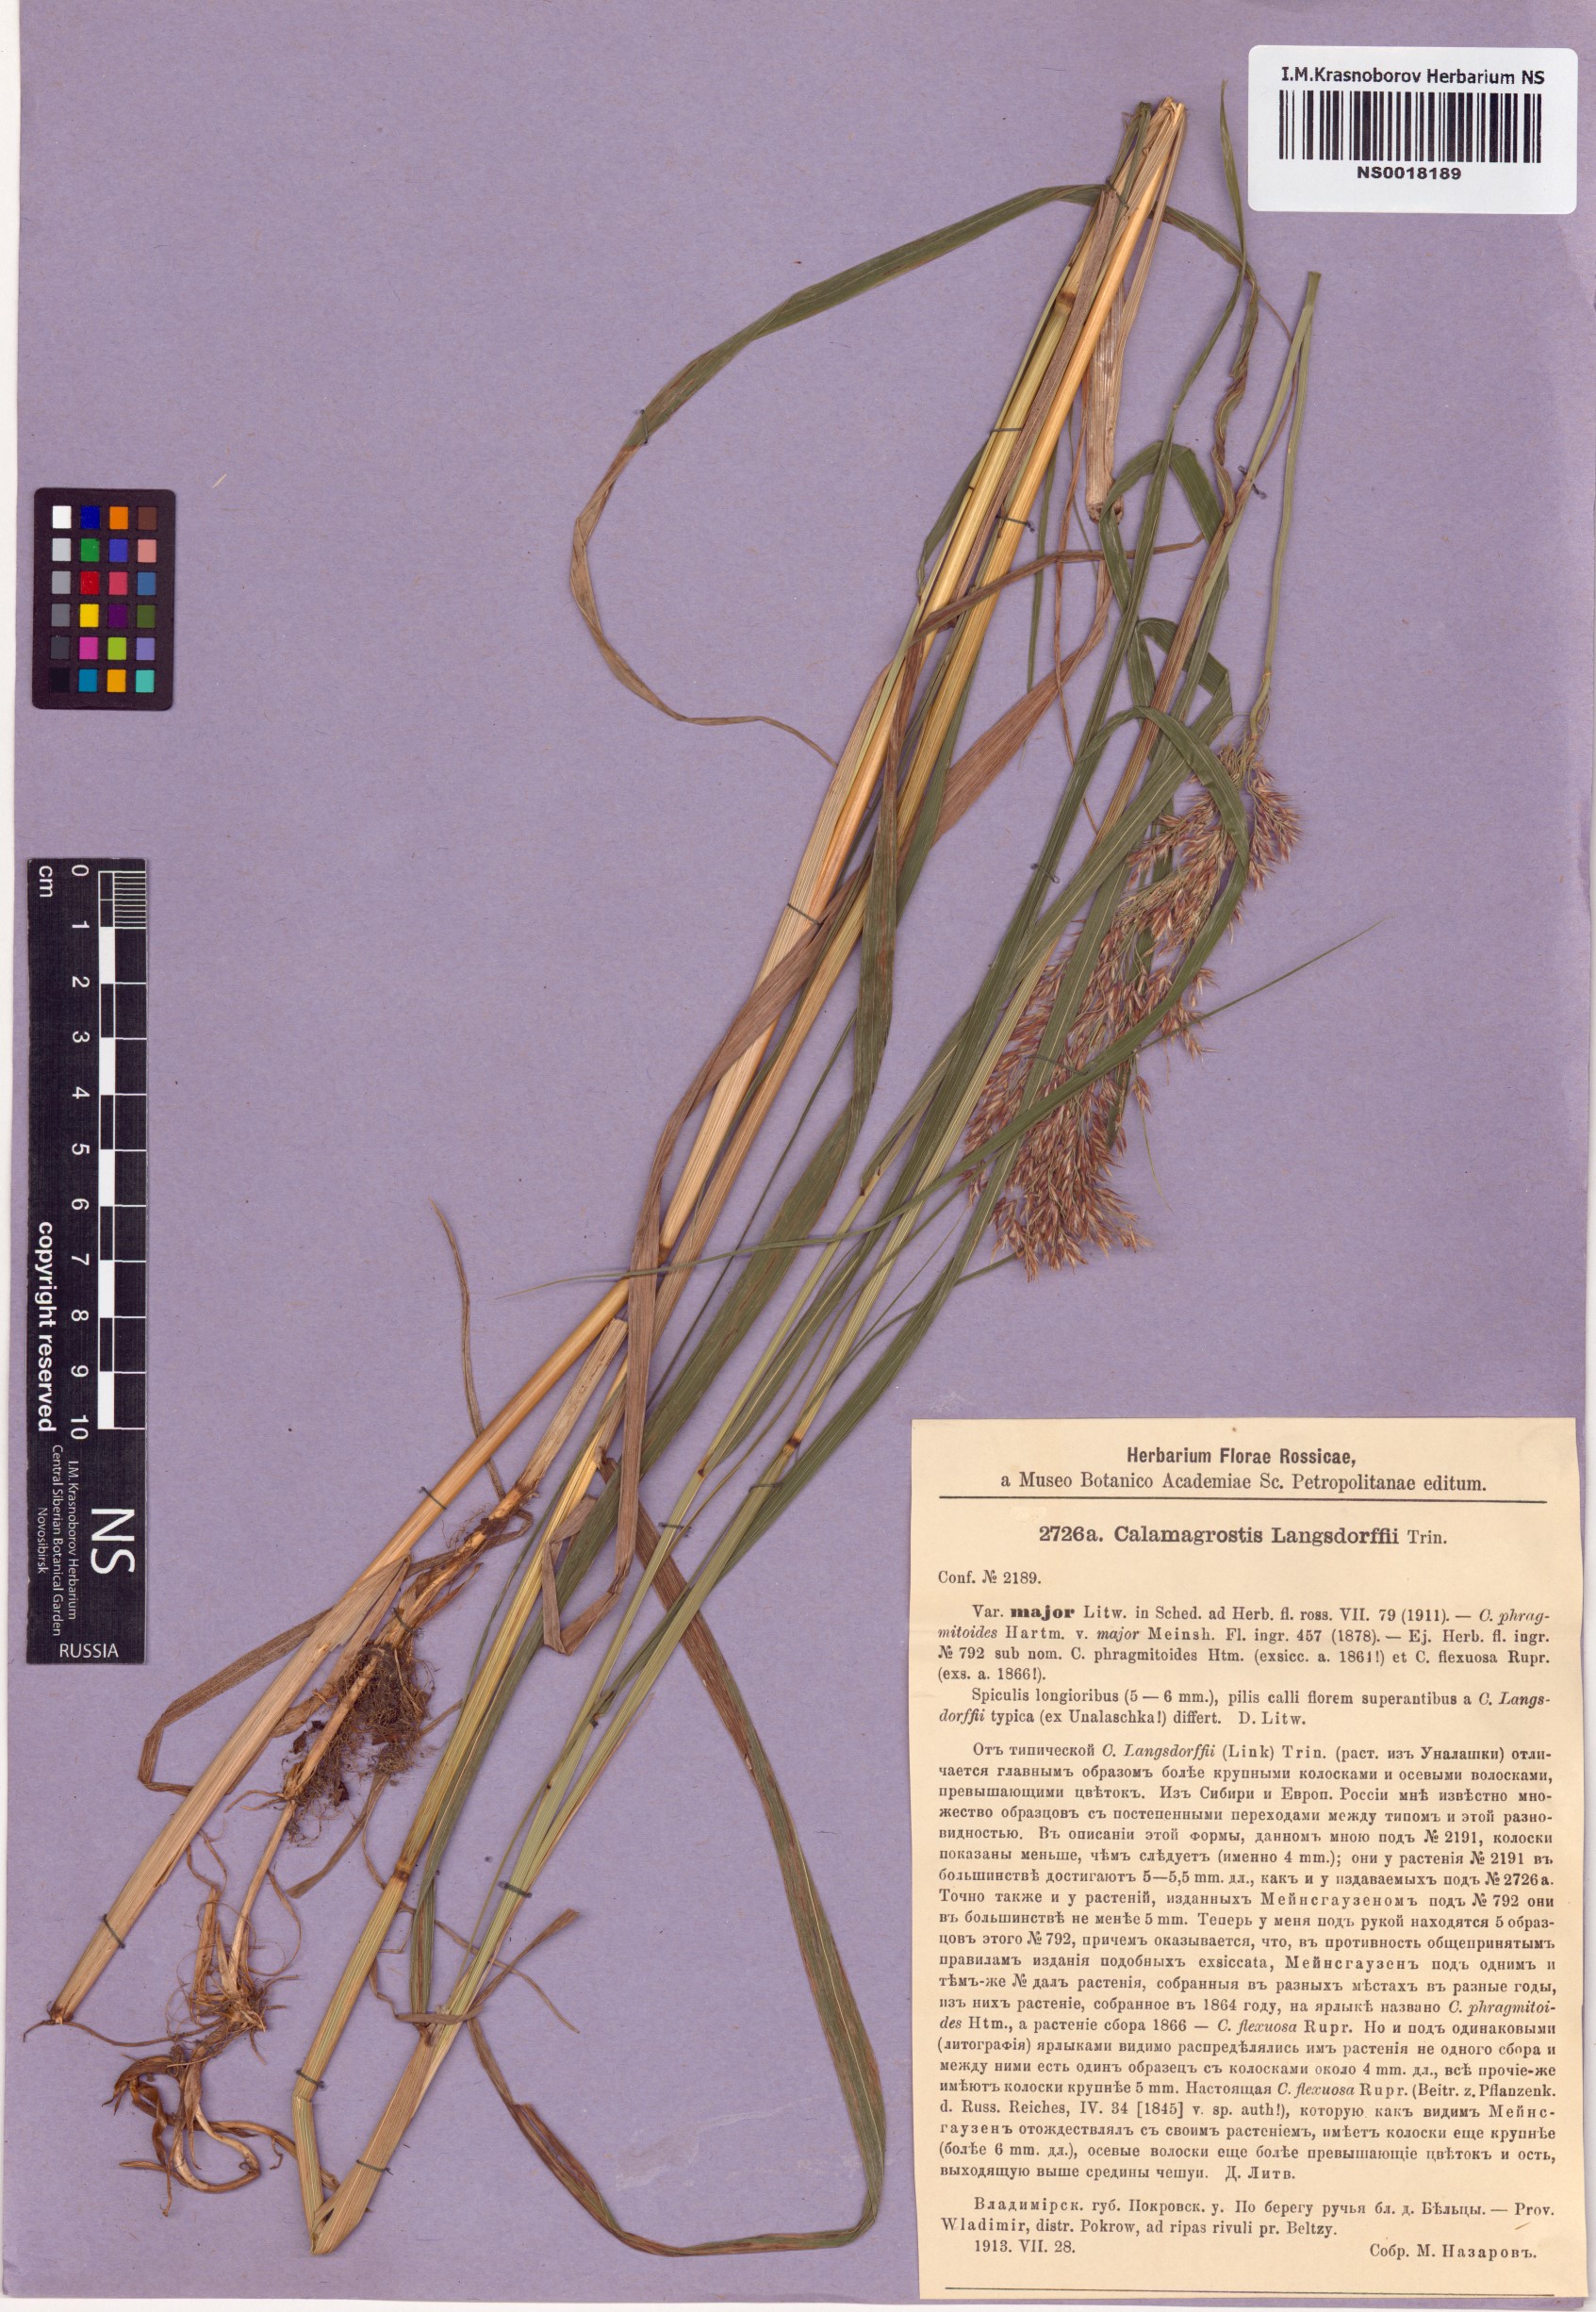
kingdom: Plantae
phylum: Tracheophyta
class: Liliopsida
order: Poales
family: Poaceae
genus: Calamagrostis
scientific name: Calamagrostis purpurea
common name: Scandinavian small-reed
